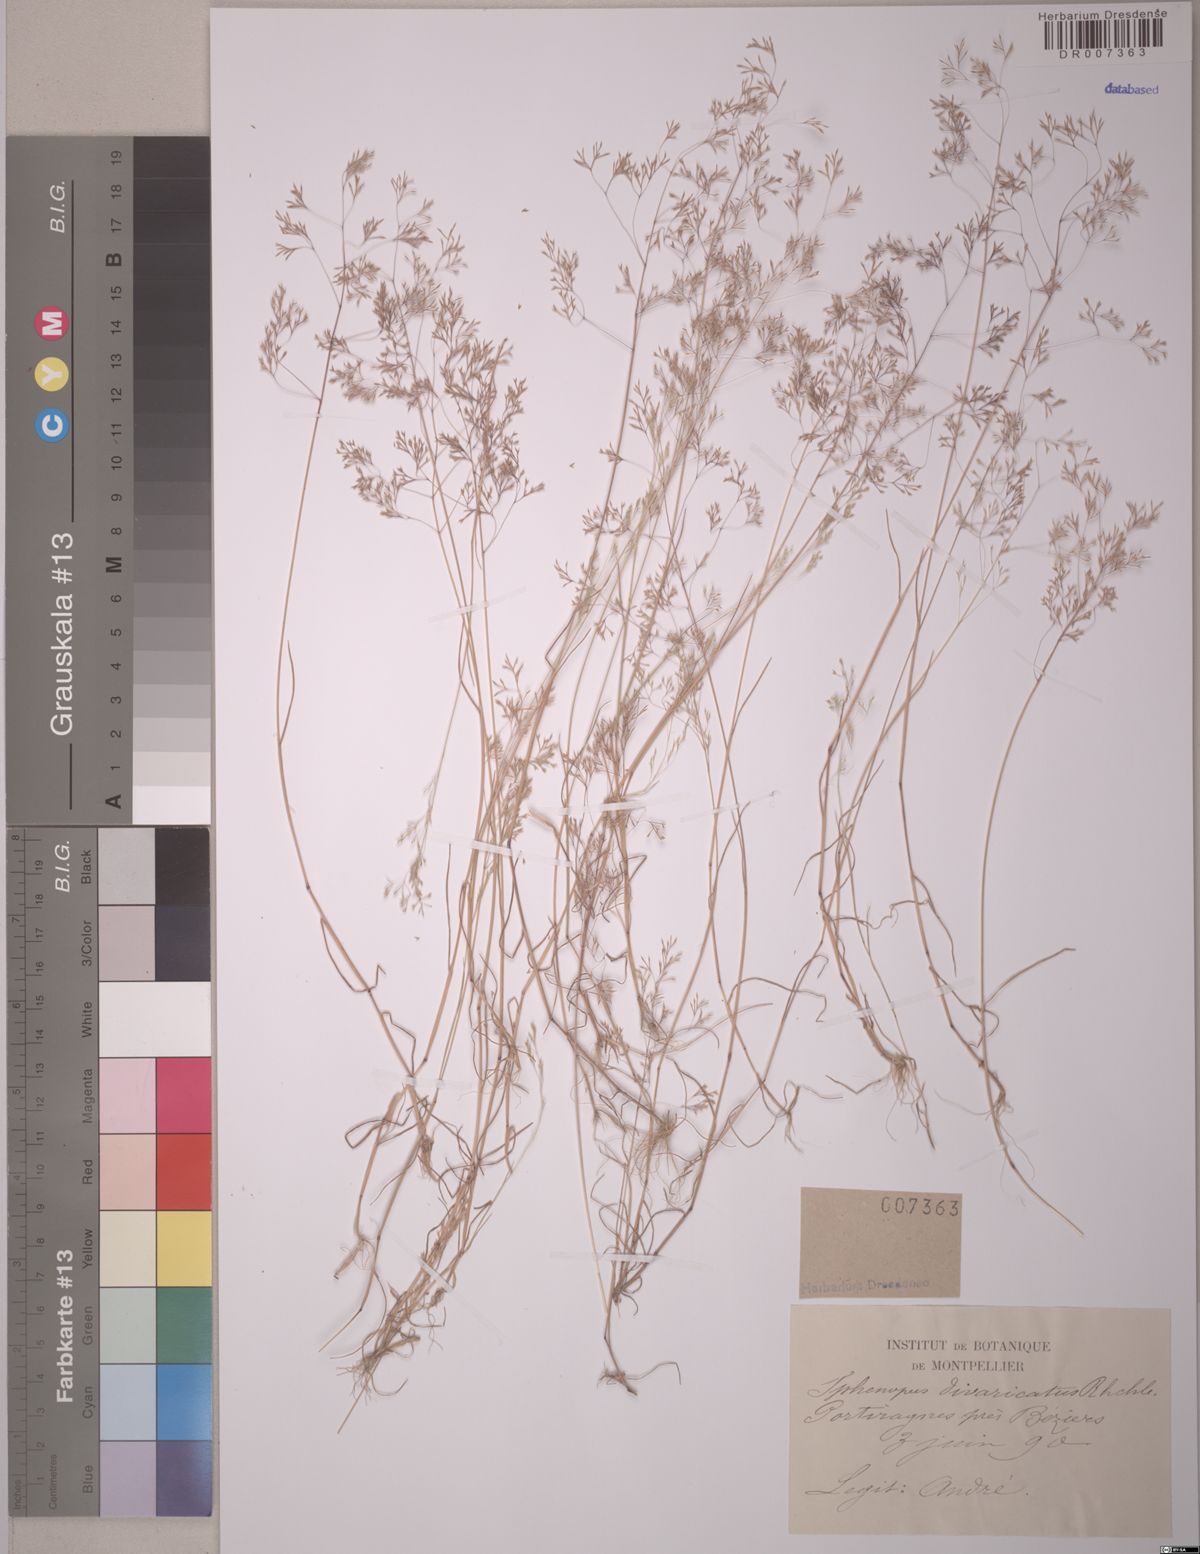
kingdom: Plantae
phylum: Tracheophyta
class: Liliopsida
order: Poales
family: Poaceae
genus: Sphenopus
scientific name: Sphenopus divaricatus
